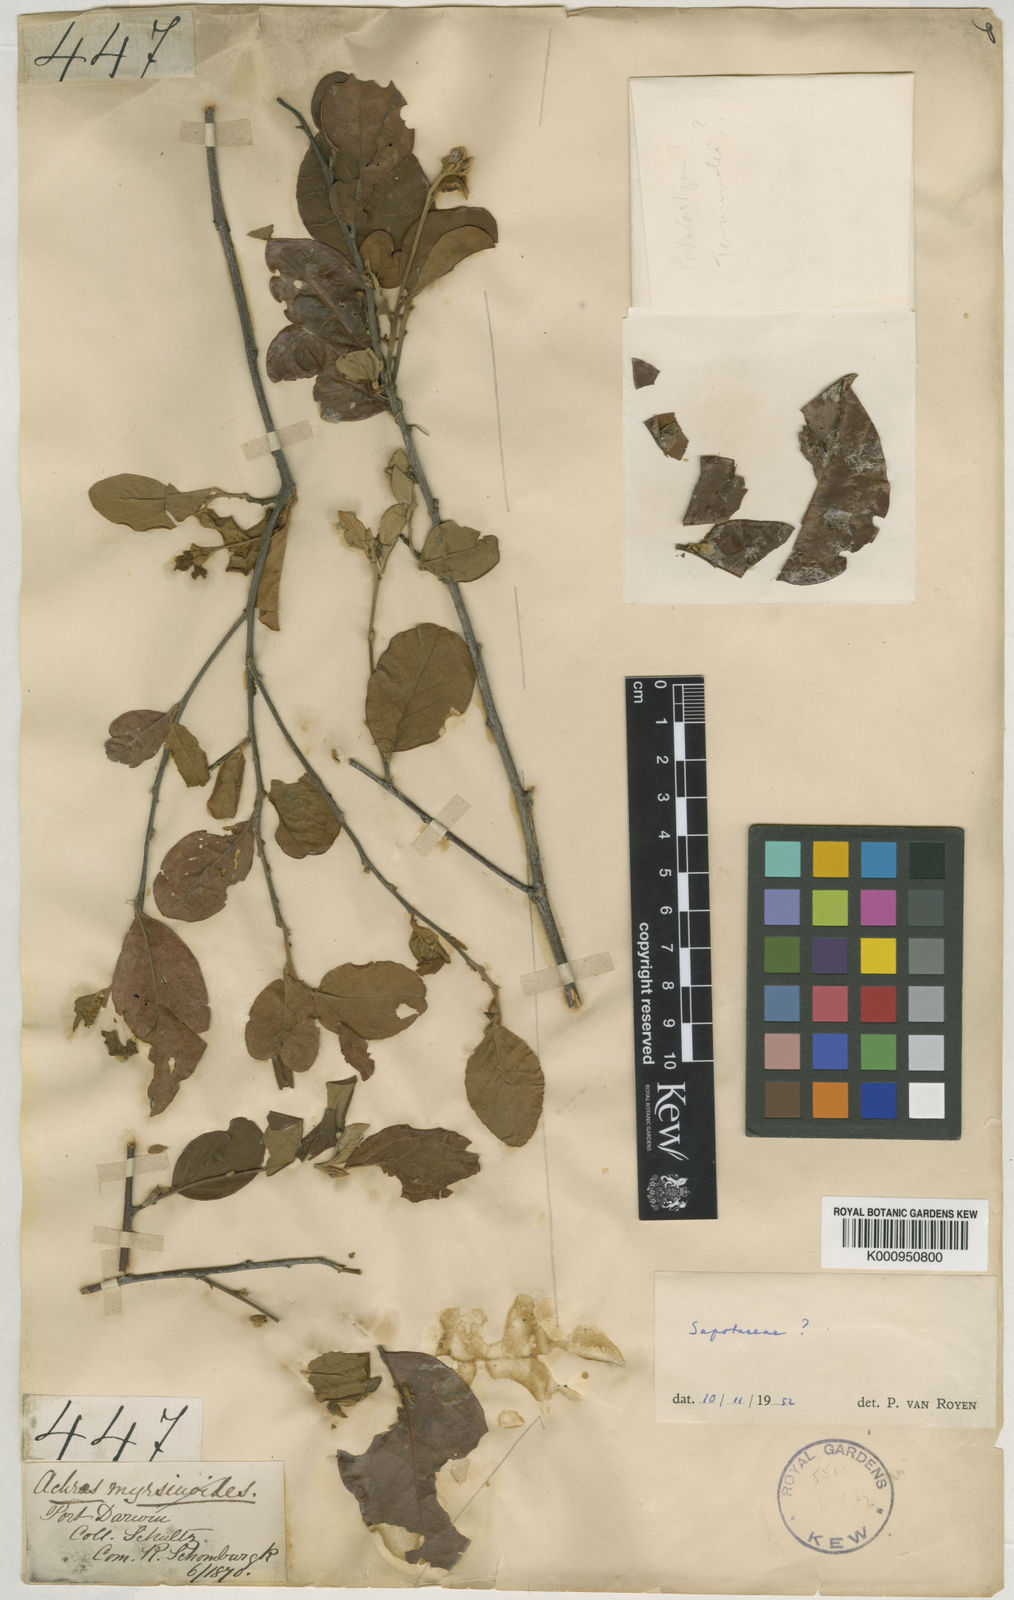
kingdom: Plantae
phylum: Tracheophyta
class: Magnoliopsida
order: Malpighiales
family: Picrodendraceae
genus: Petalostigma
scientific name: Petalostigma quadriloculare
